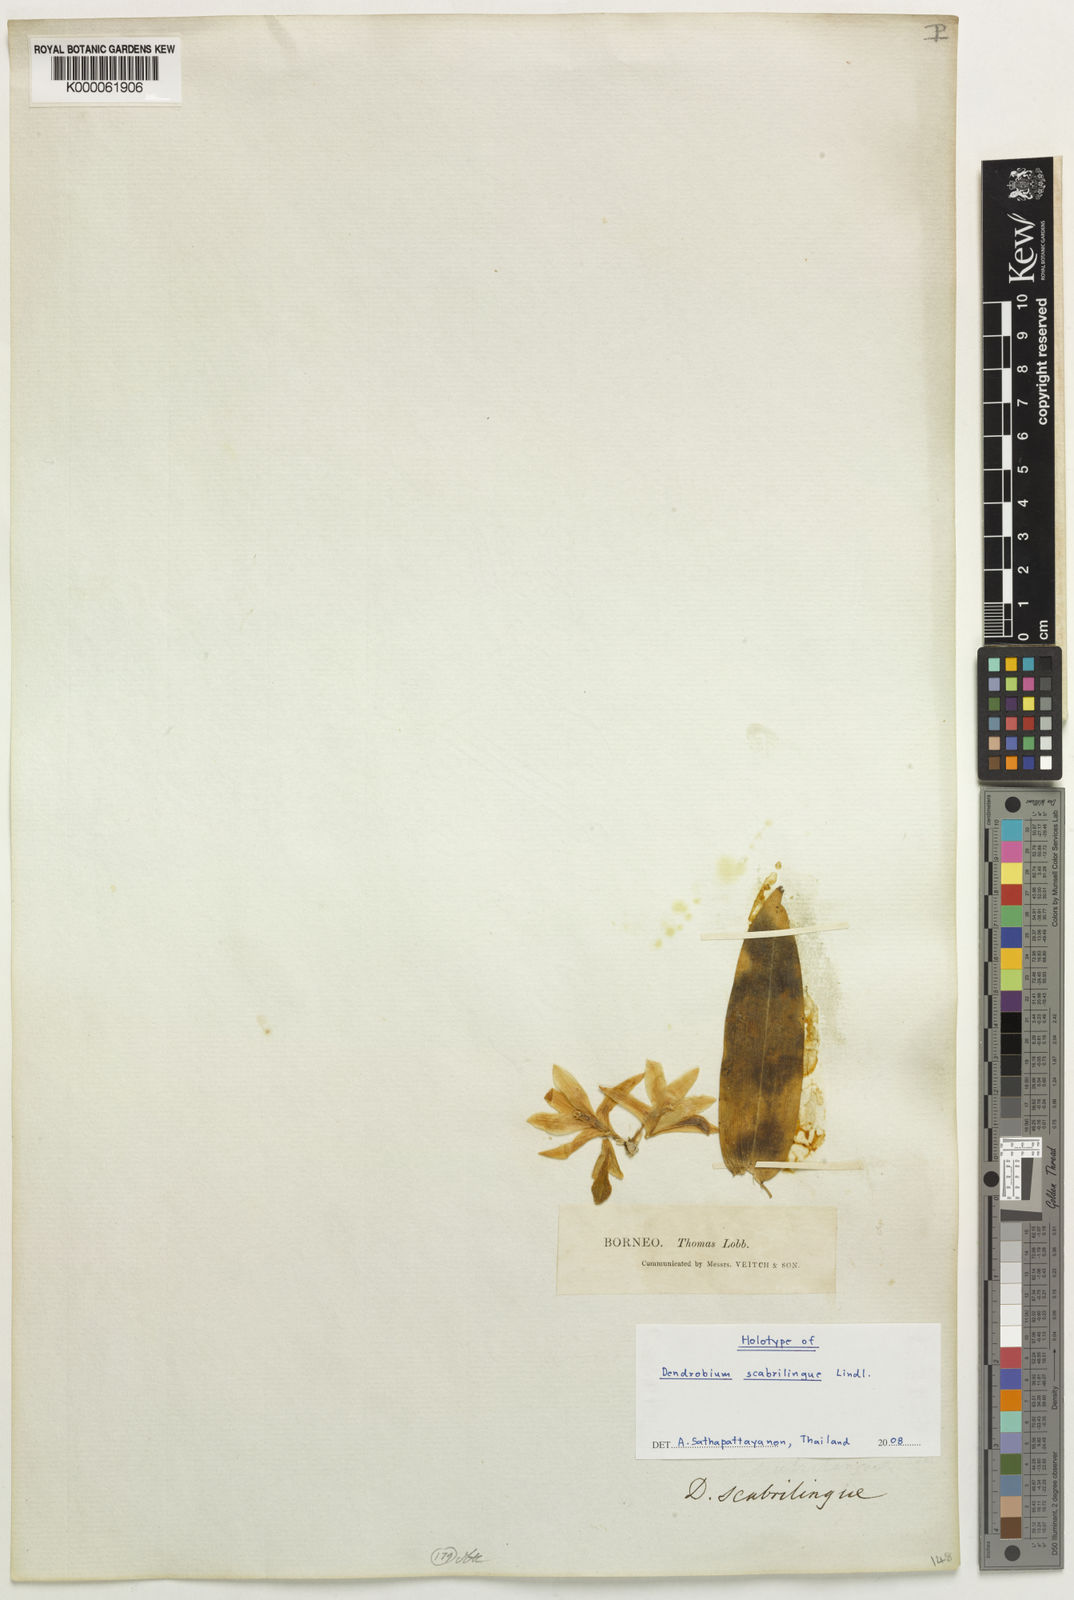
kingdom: Plantae
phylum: Tracheophyta
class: Liliopsida
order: Asparagales
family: Orchidaceae
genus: Dendrobium
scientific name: Dendrobium scabrilingue
